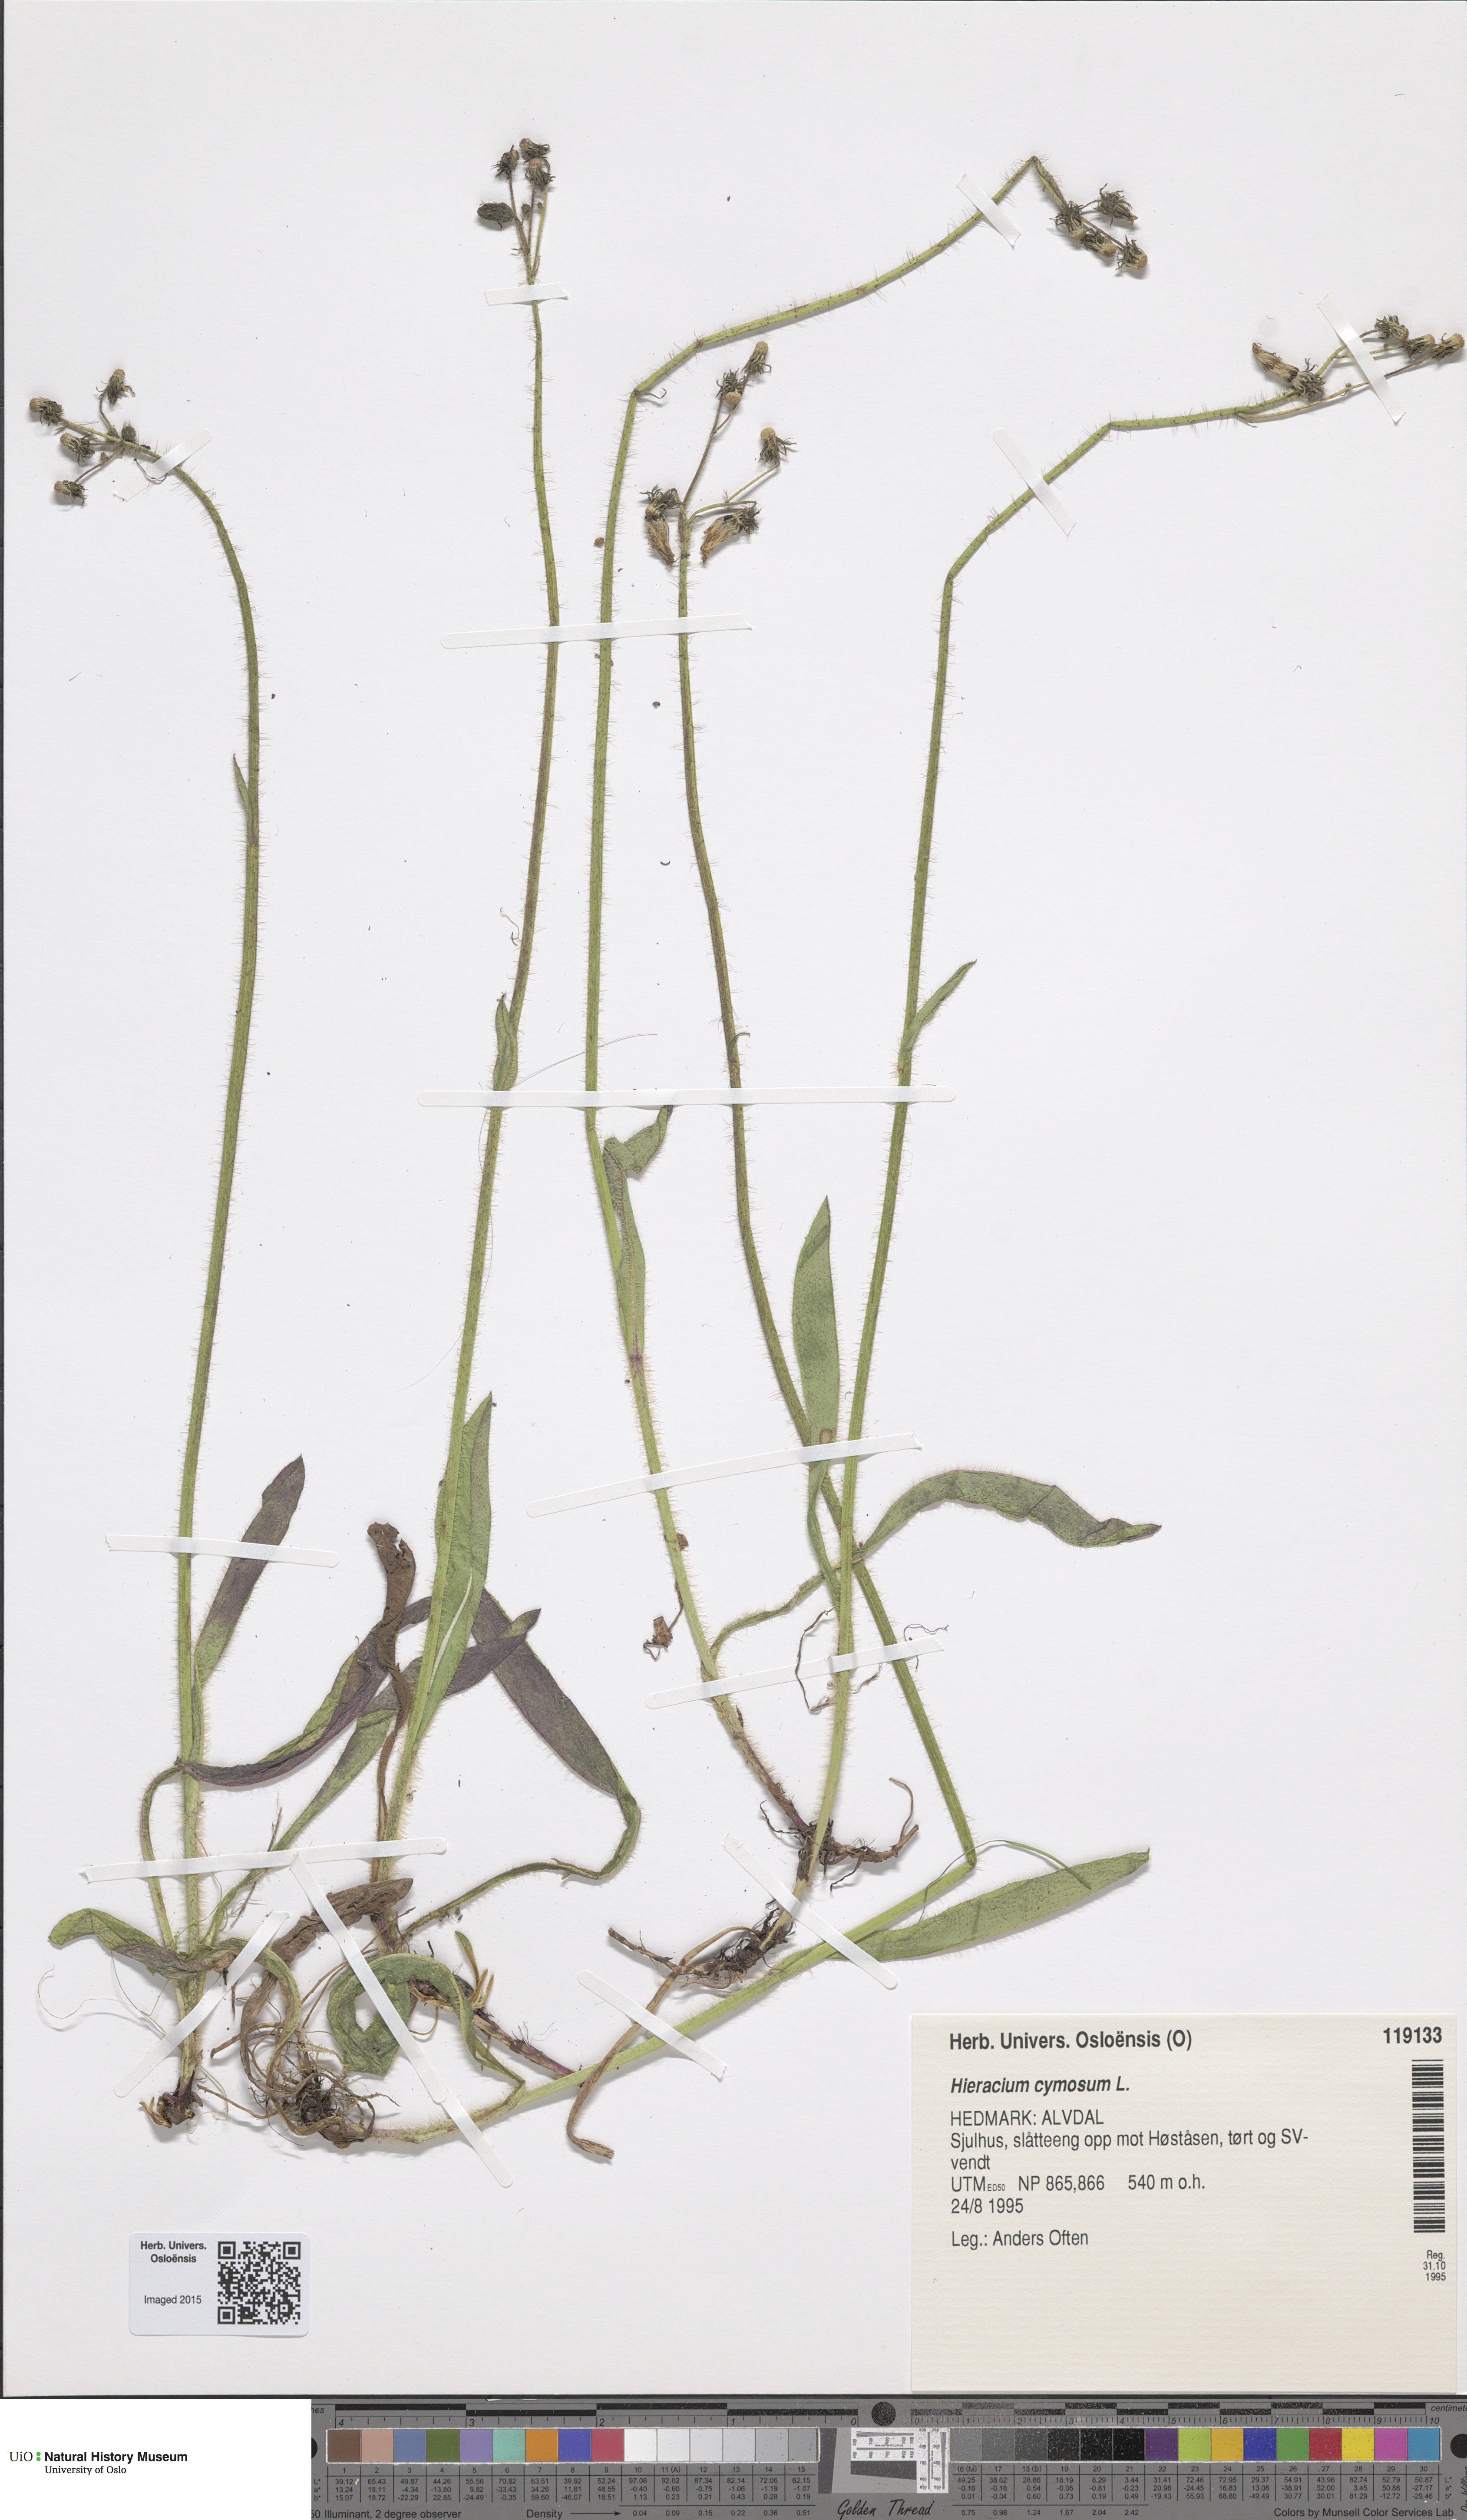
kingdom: Plantae
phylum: Tracheophyta
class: Magnoliopsida
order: Asterales
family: Asteraceae
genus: Pilosella
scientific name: Pilosella cymosa
